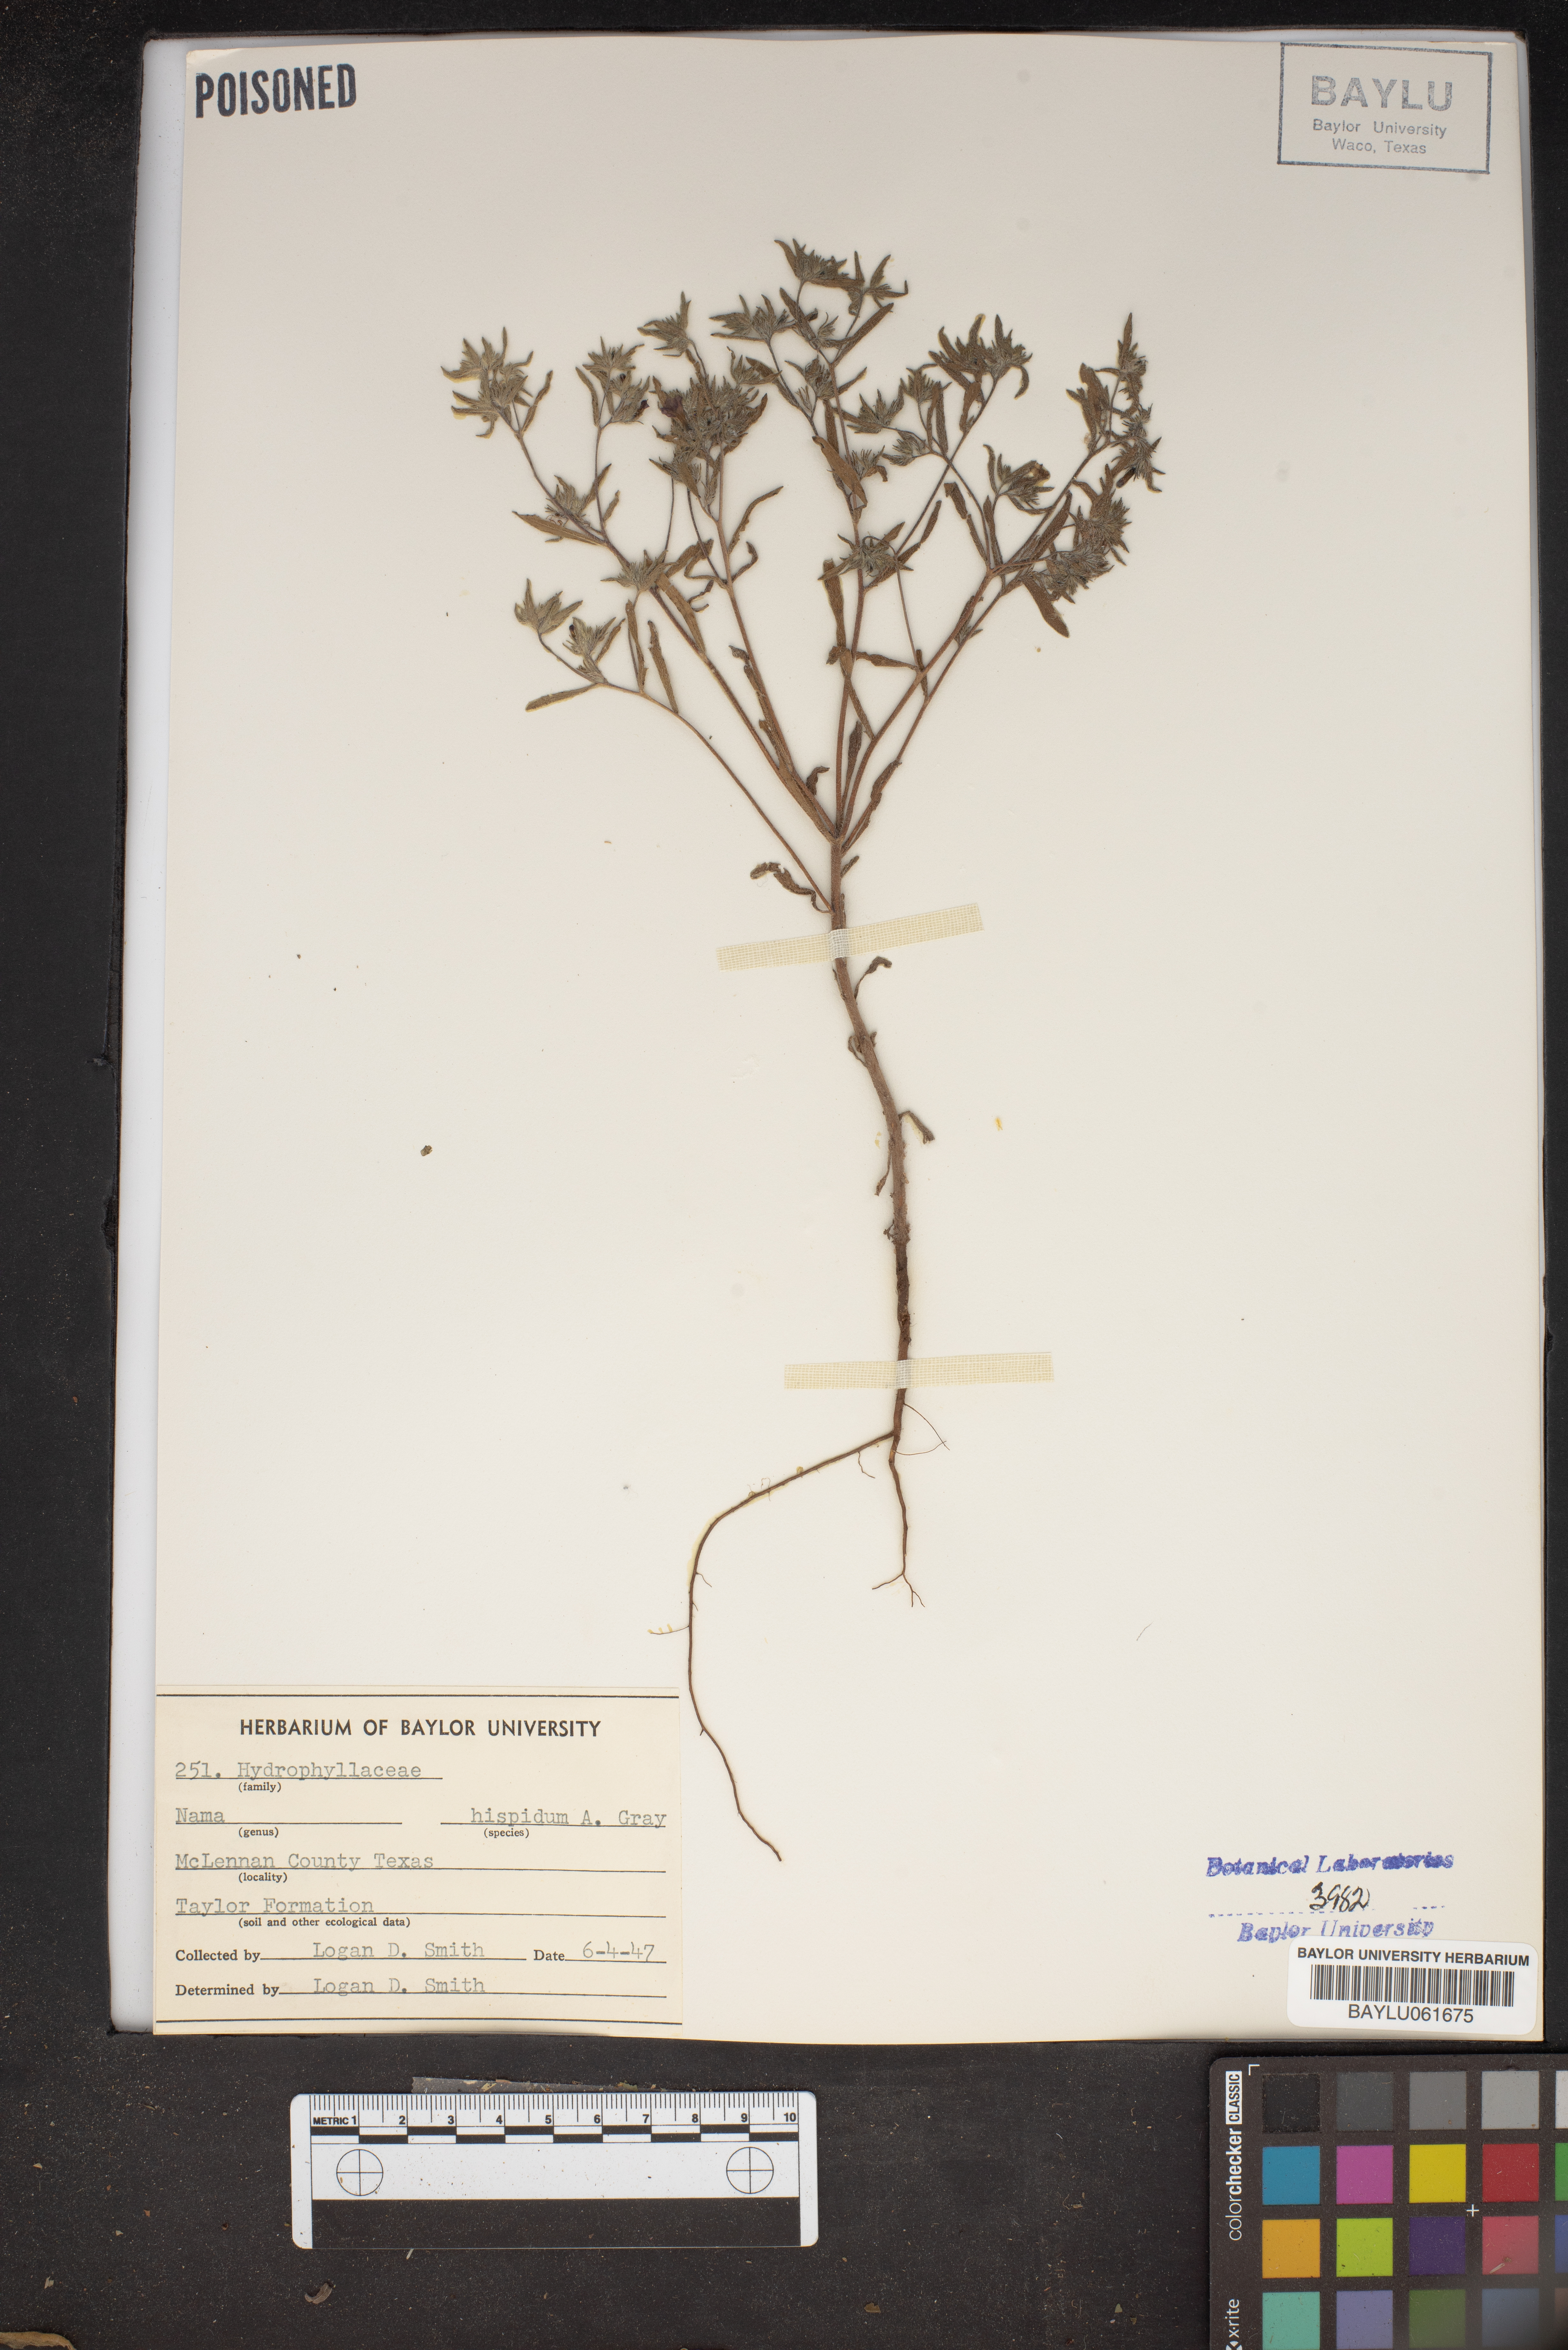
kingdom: Plantae
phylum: Tracheophyta
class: Magnoliopsida
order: Boraginales
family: Namaceae
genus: Nama
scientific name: Nama hispida
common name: Bristly nama
